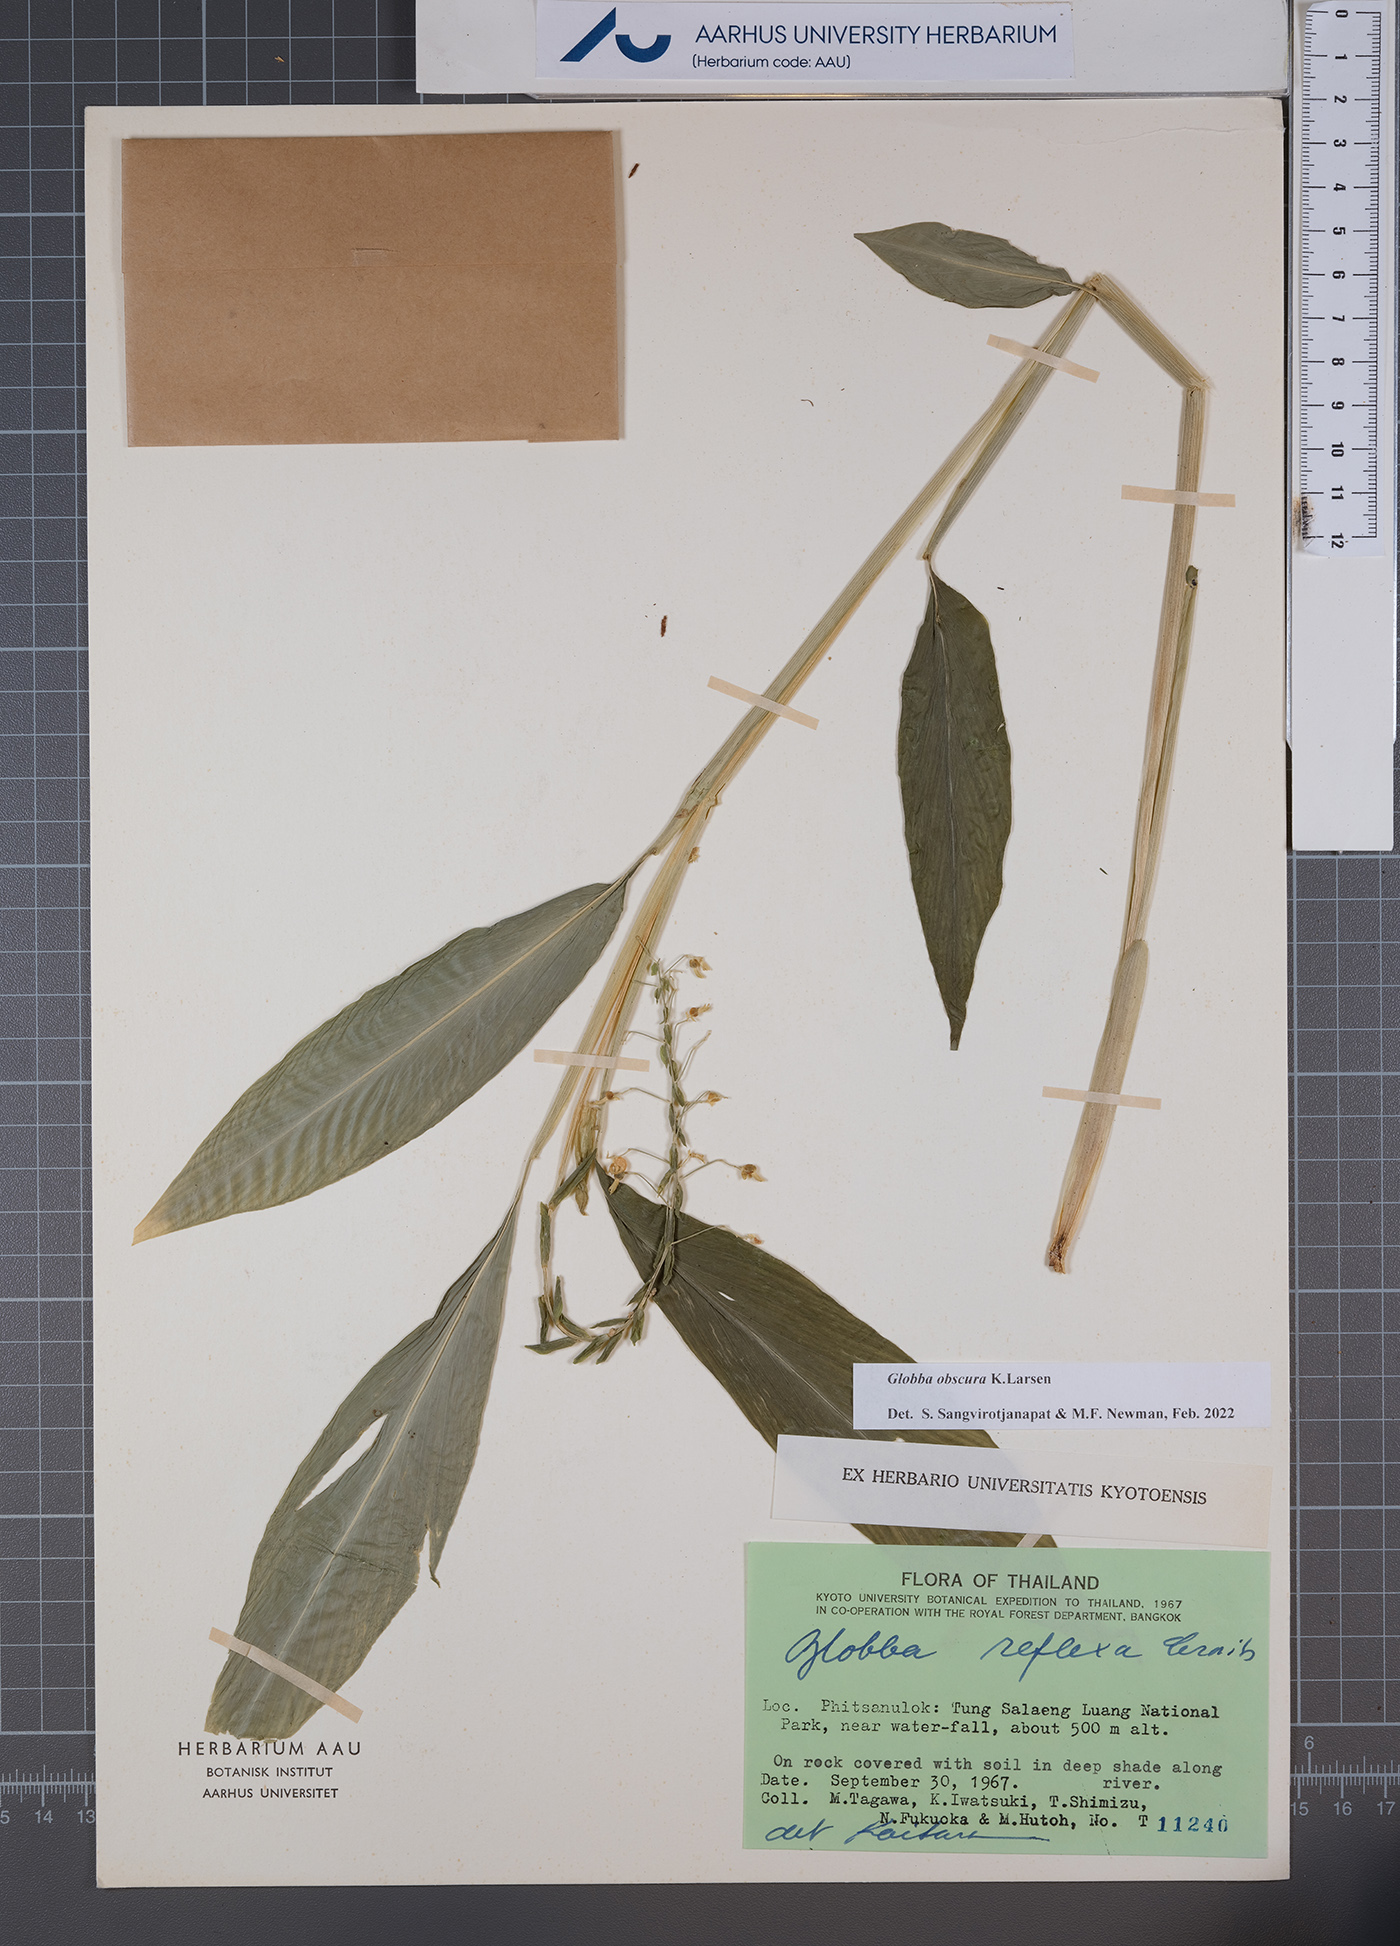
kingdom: Plantae
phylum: Tracheophyta
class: Liliopsida
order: Zingiberales
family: Zingiberaceae
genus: Globba
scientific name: Globba obscura
